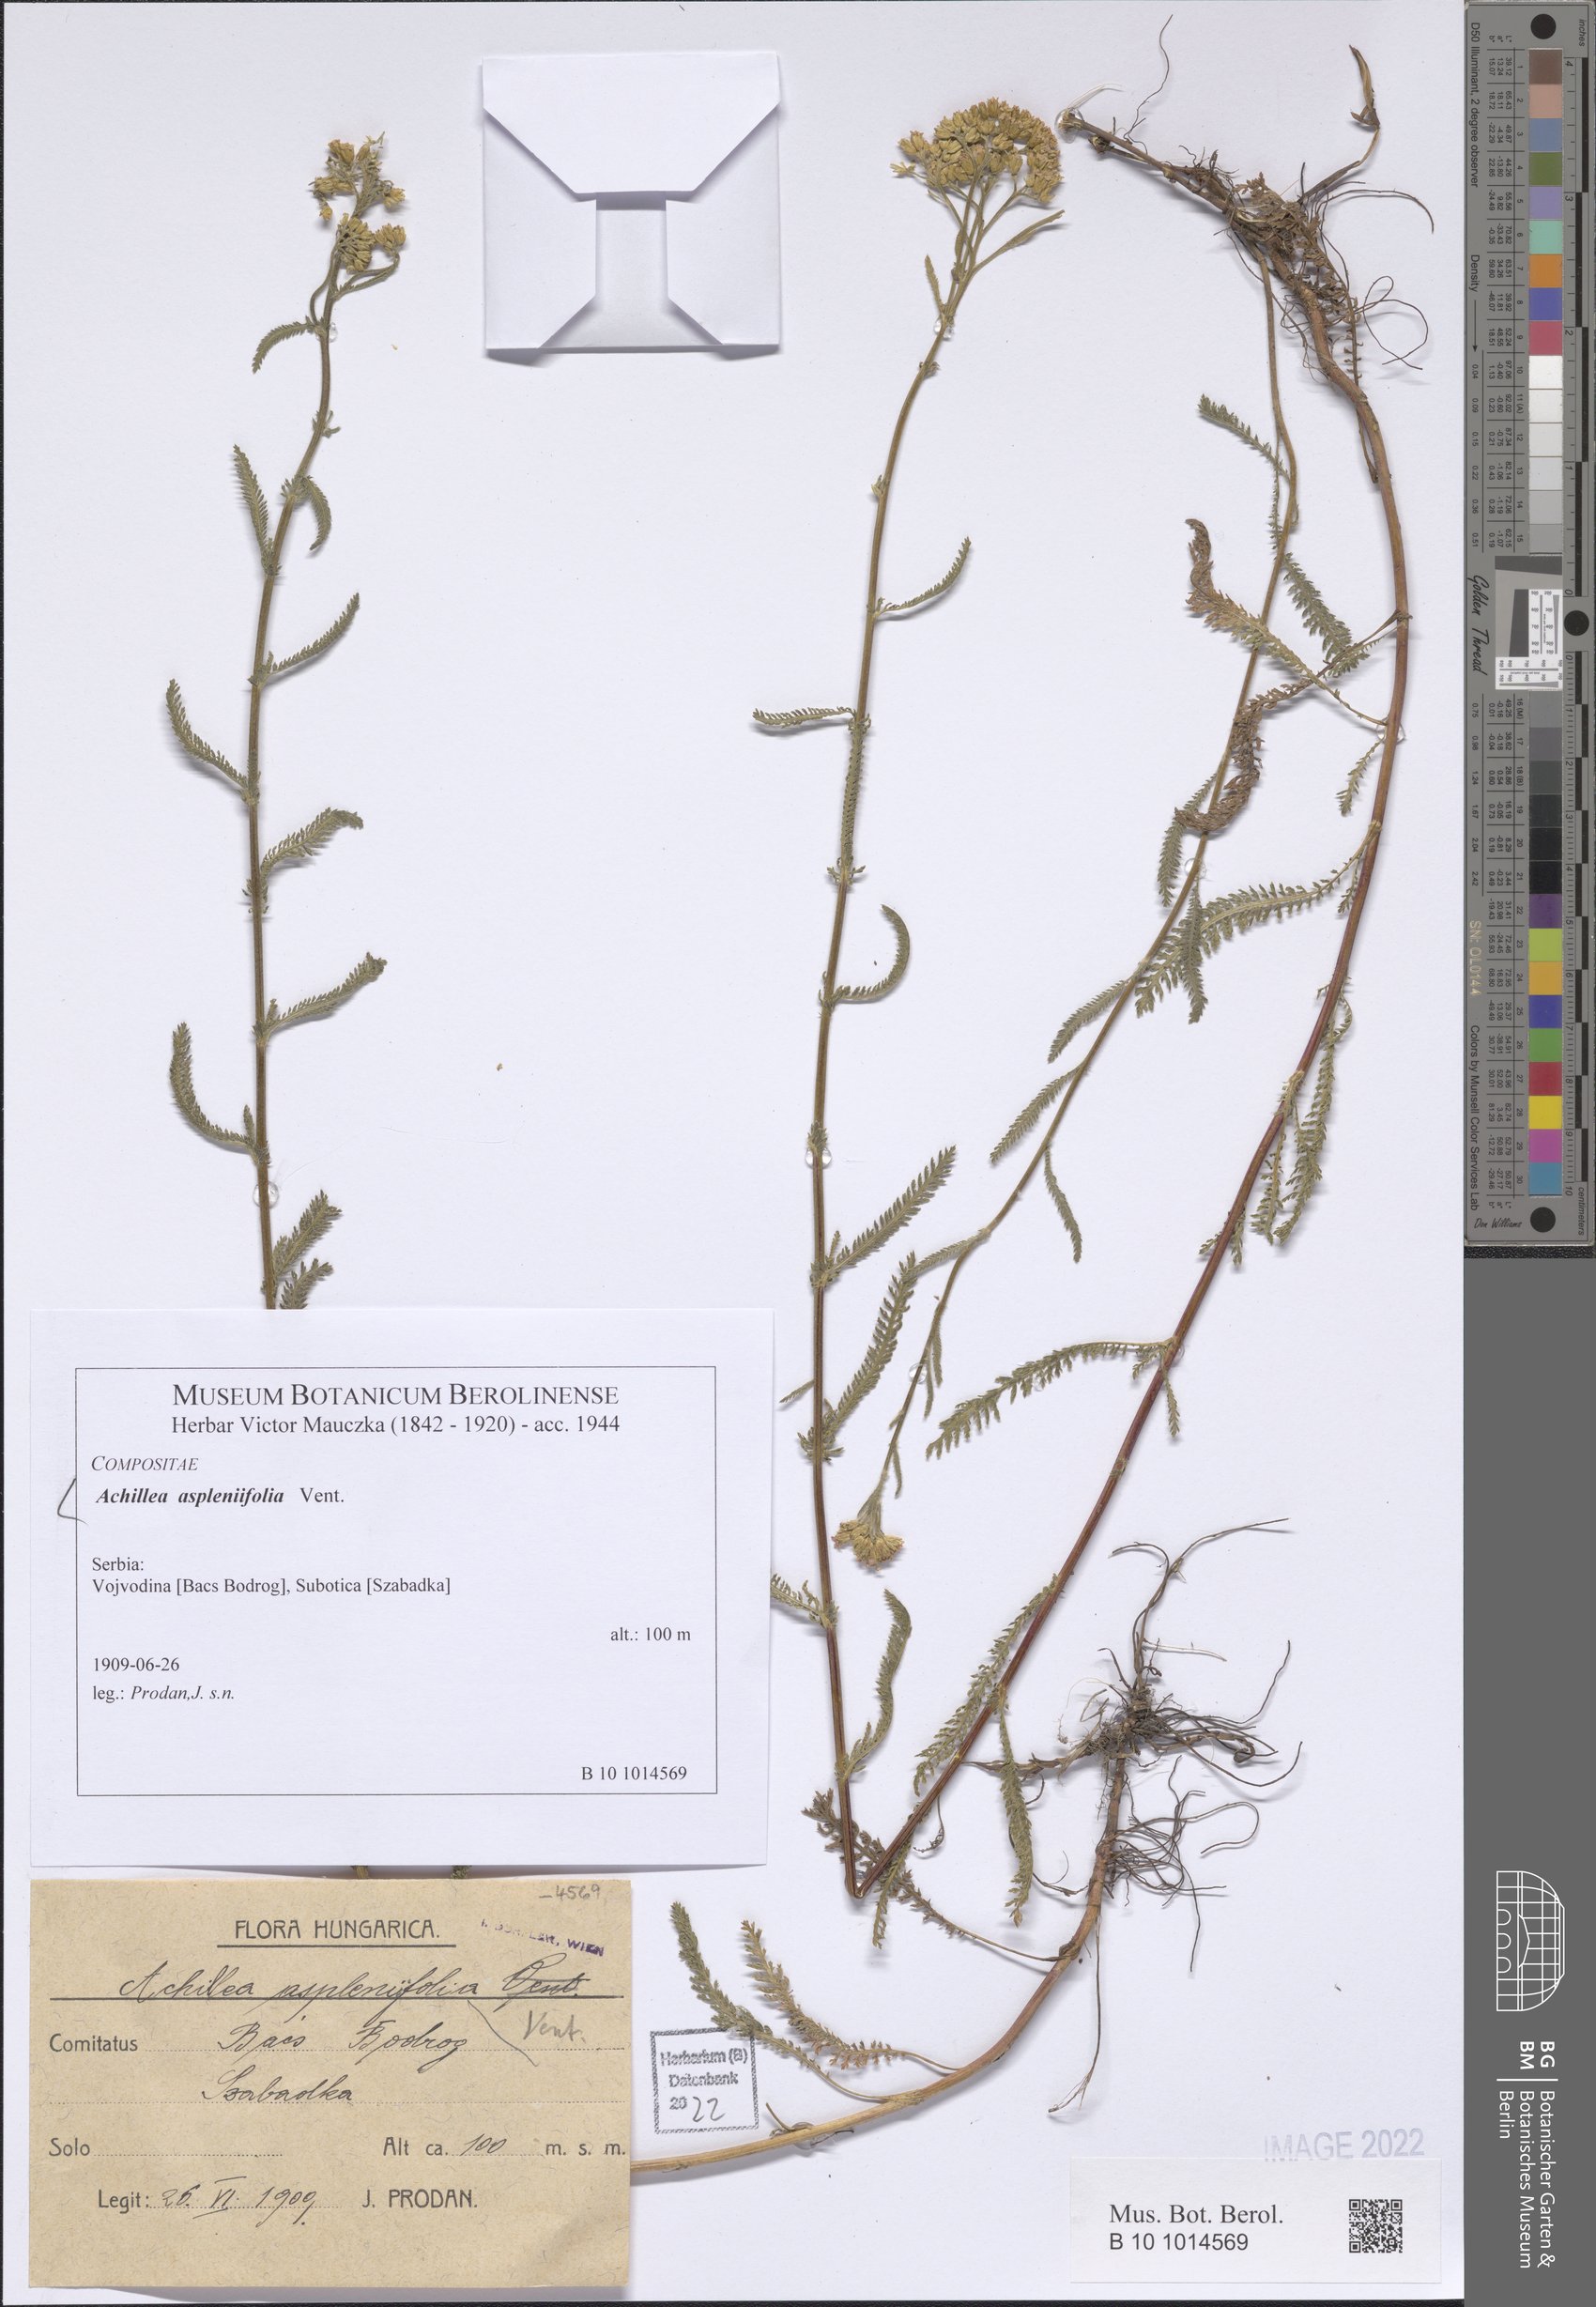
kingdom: Plantae
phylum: Tracheophyta
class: Magnoliopsida
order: Asterales
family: Asteraceae
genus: Achillea
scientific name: Achillea aspleniifolia
